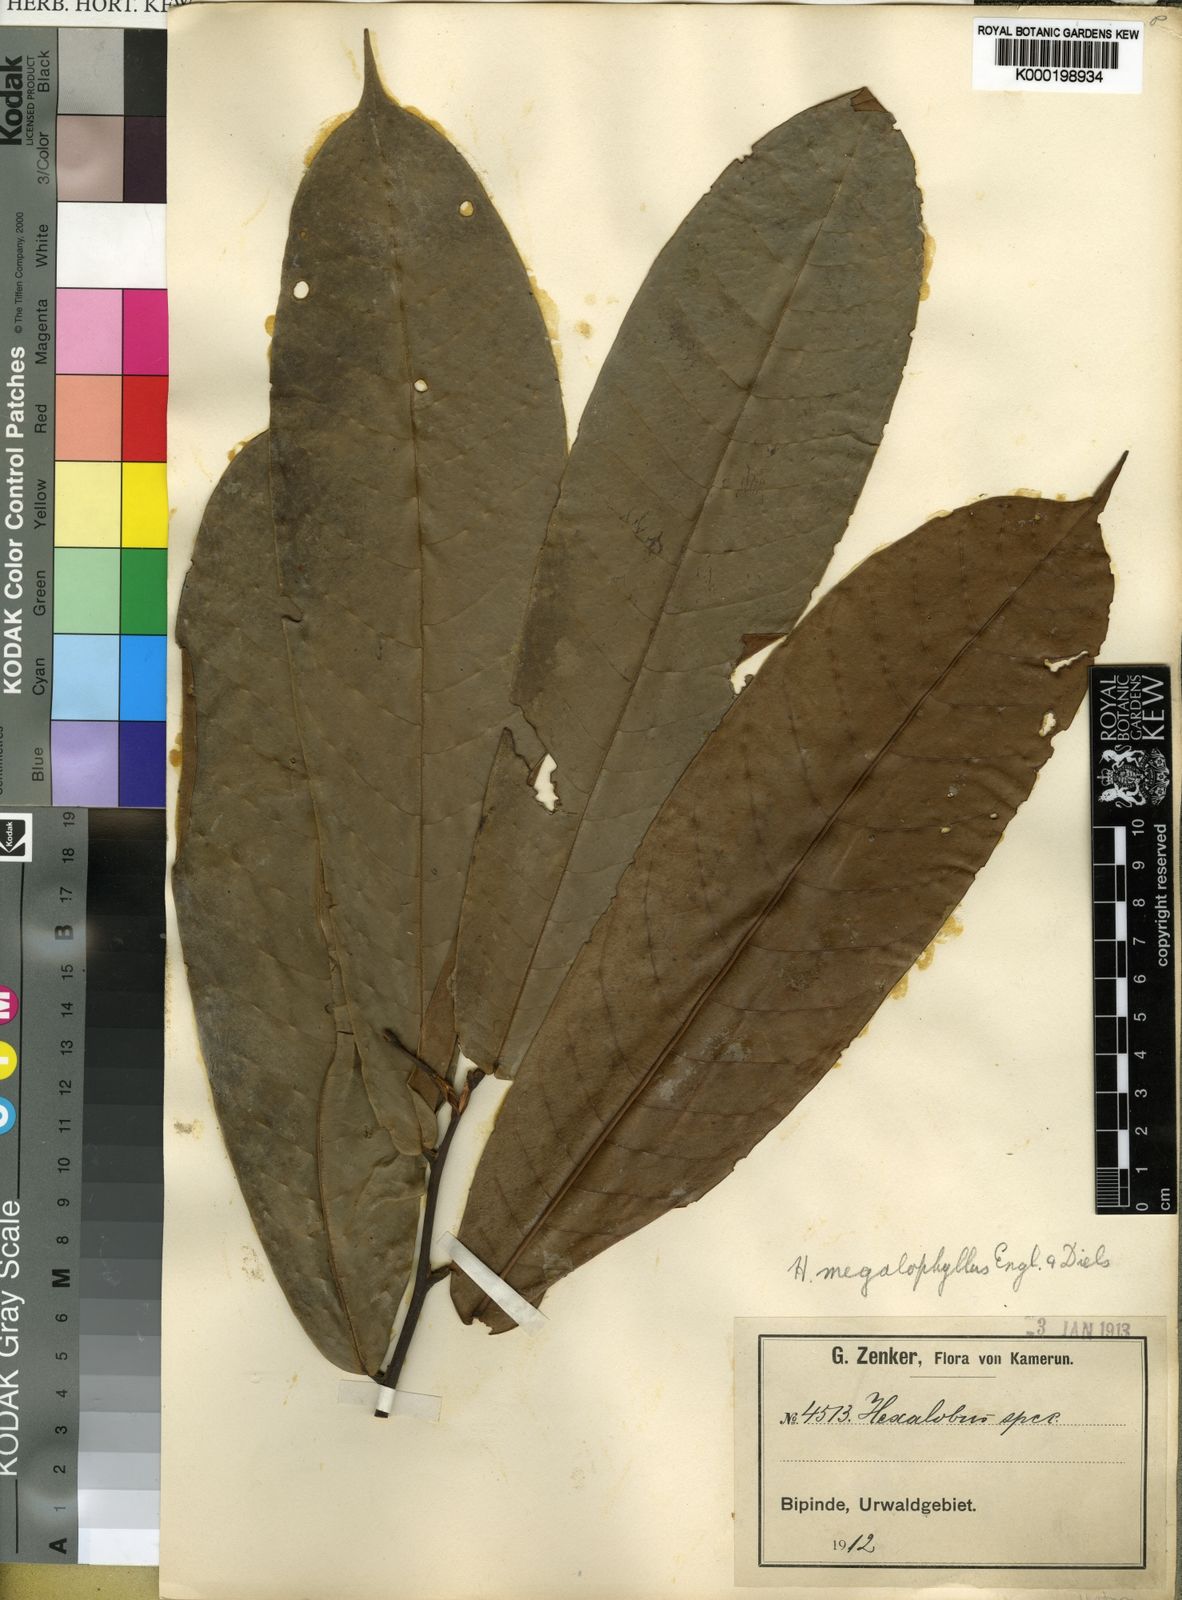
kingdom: Plantae
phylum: Tracheophyta
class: Magnoliopsida
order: Magnoliales
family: Annonaceae
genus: Hexalobus
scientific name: Hexalobus bussei
